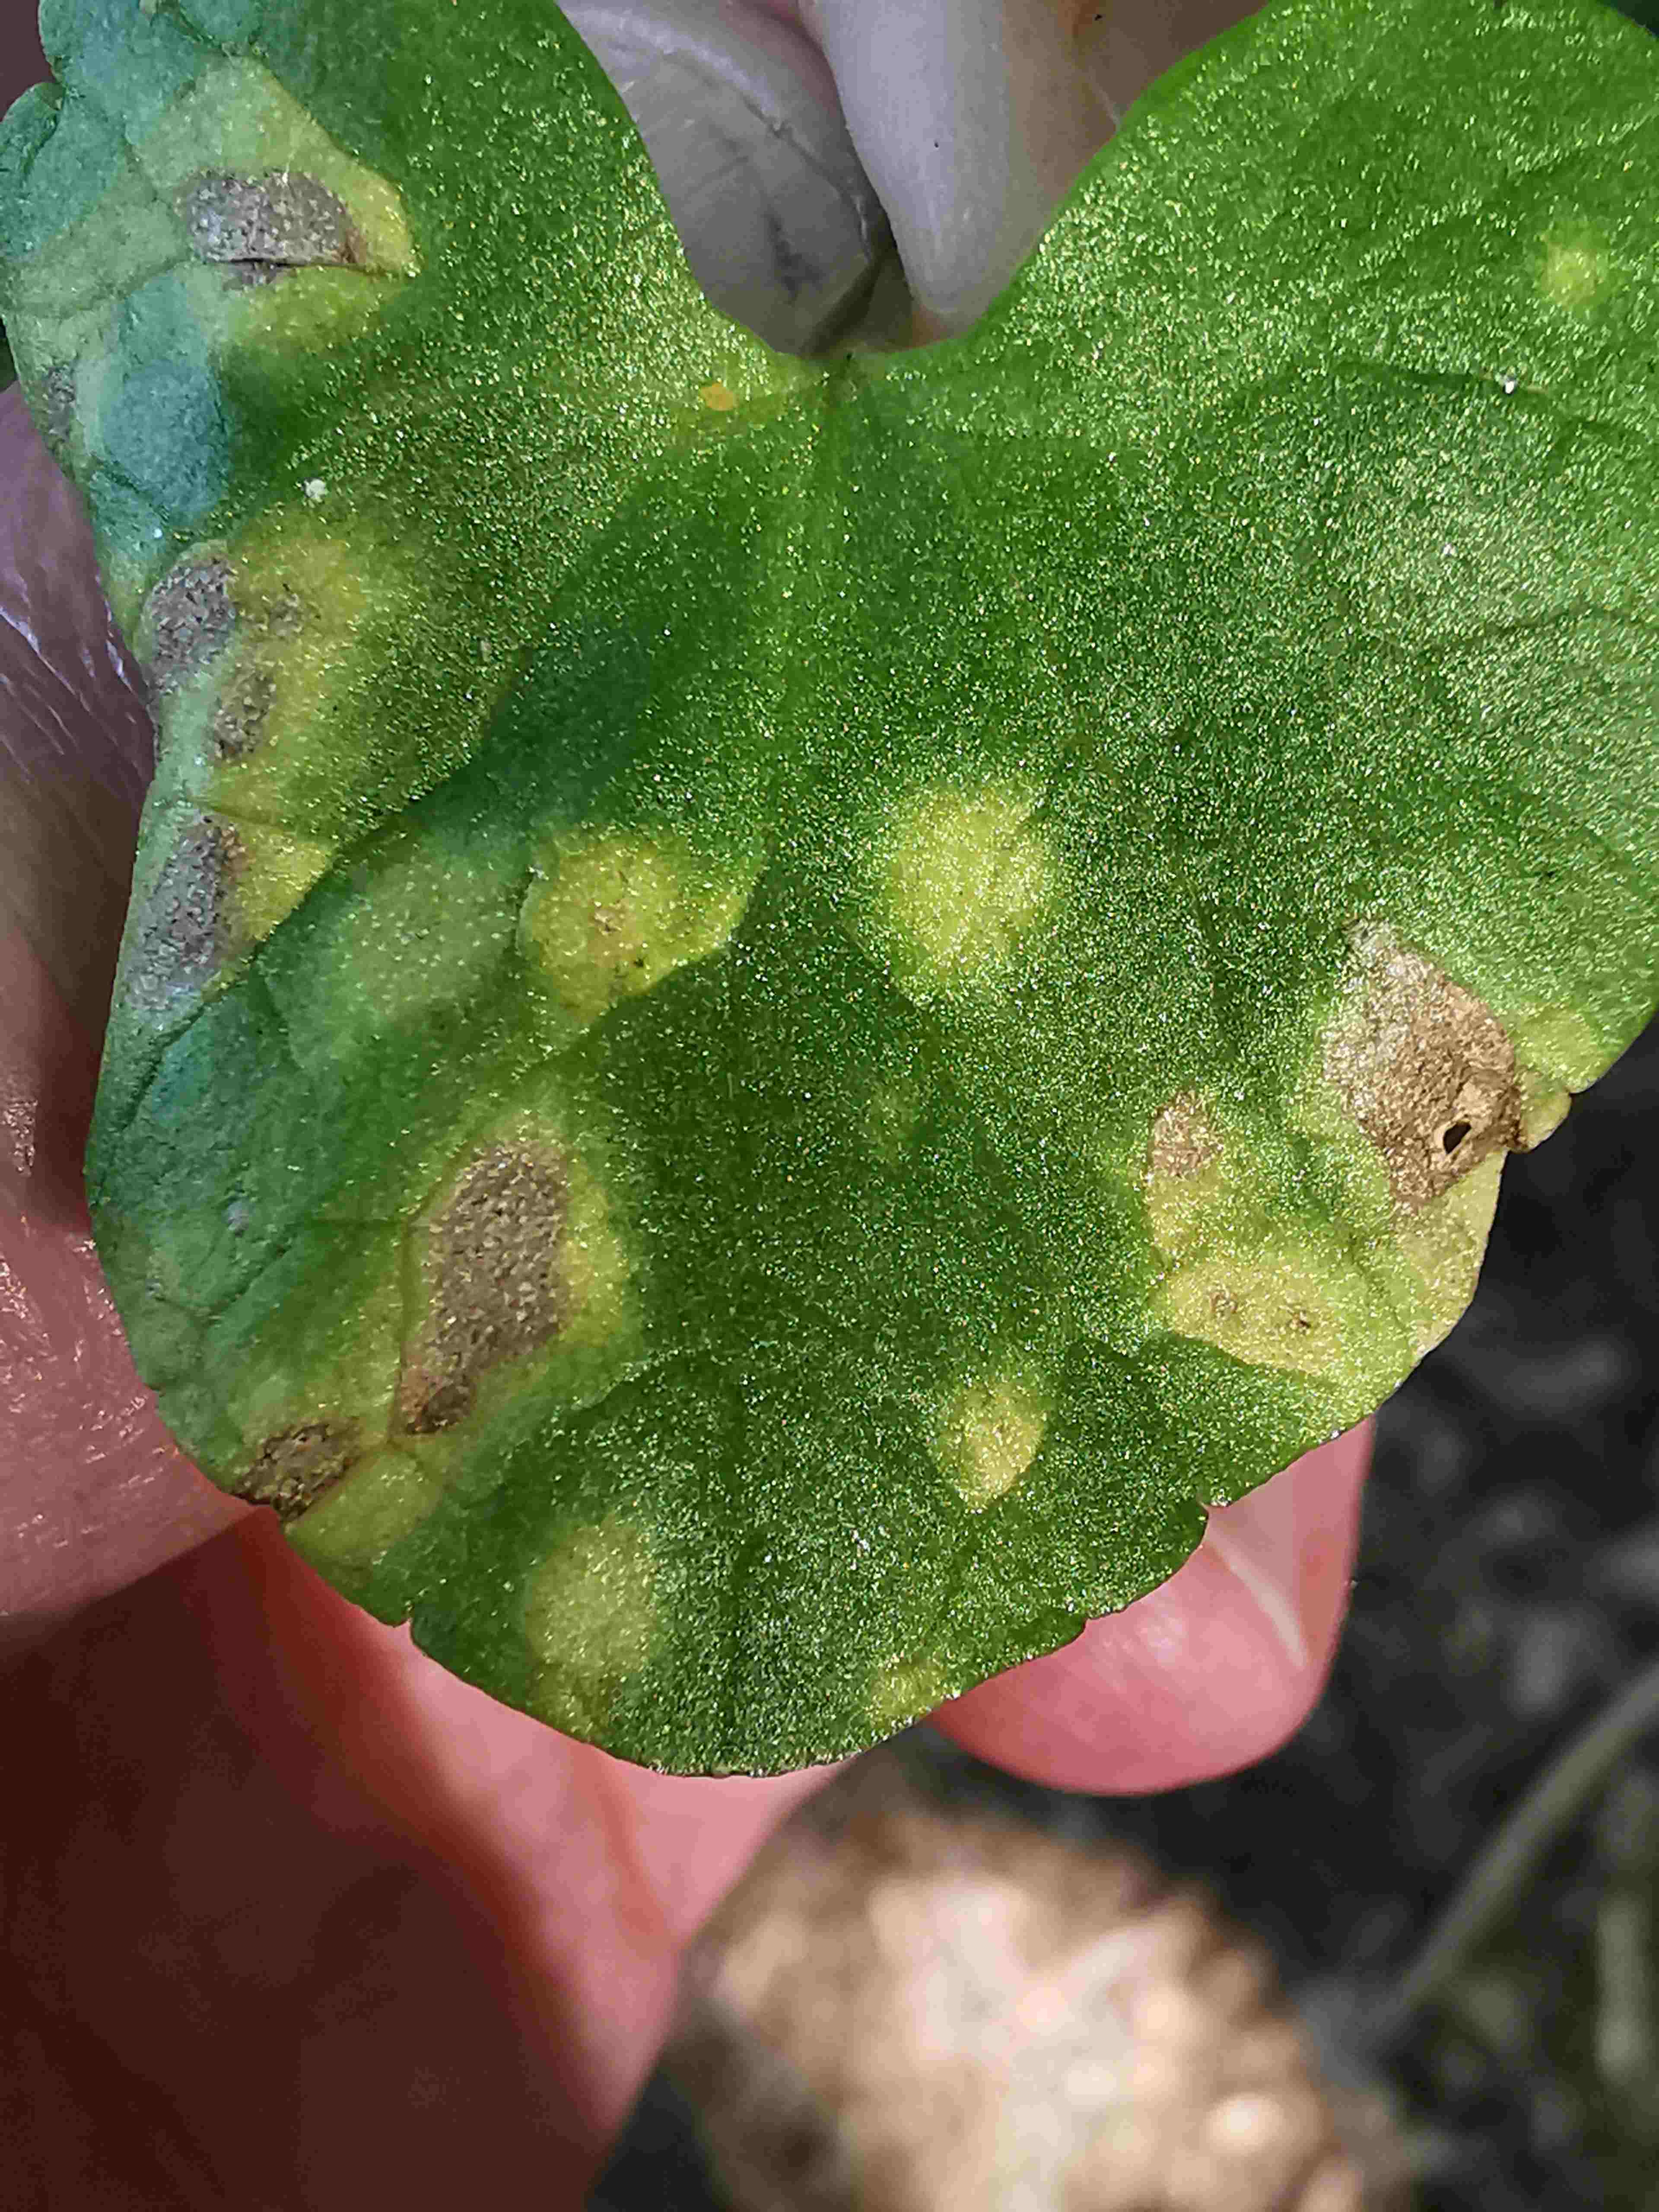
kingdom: Fungi
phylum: Basidiomycota
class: Exobasidiomycetes
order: Entylomatales
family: Entylomataceae
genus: Entyloma
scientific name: Entyloma ficariae
